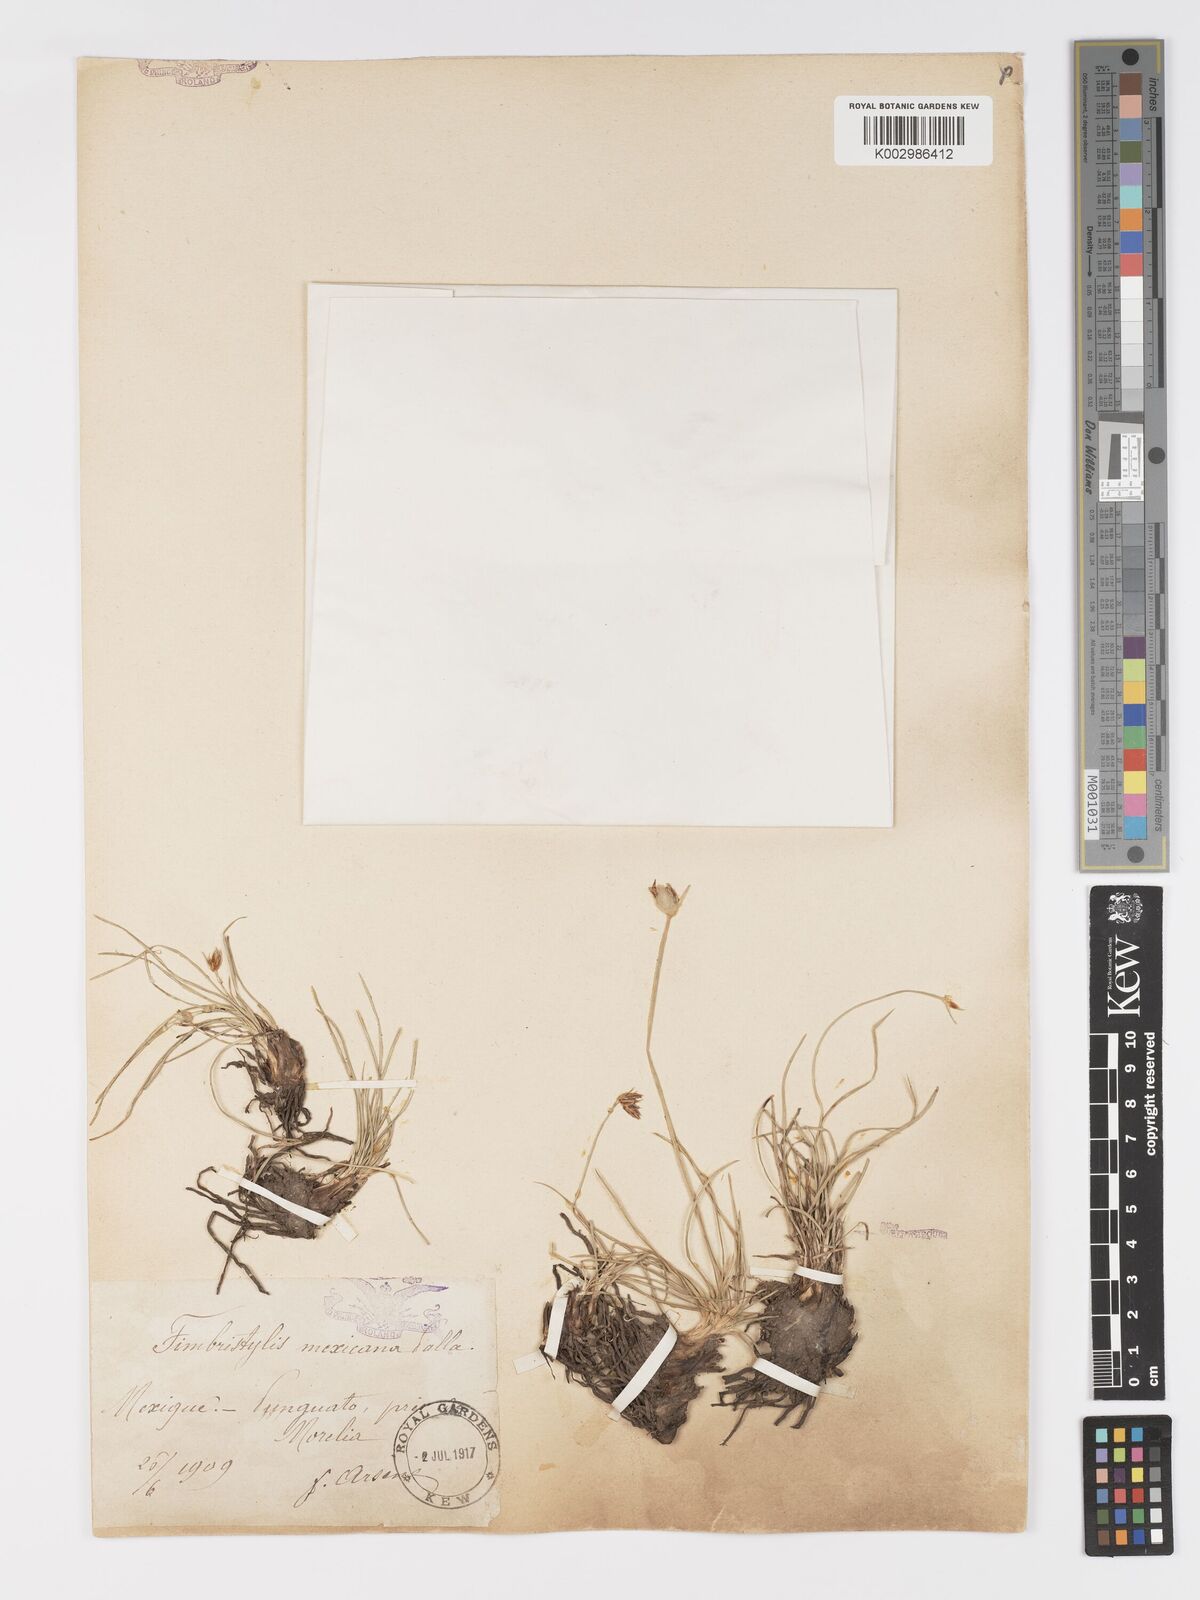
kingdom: Plantae
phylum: Tracheophyta
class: Liliopsida
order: Poales
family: Cyperaceae
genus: Abildgaardia
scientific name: Abildgaardia mexicana
